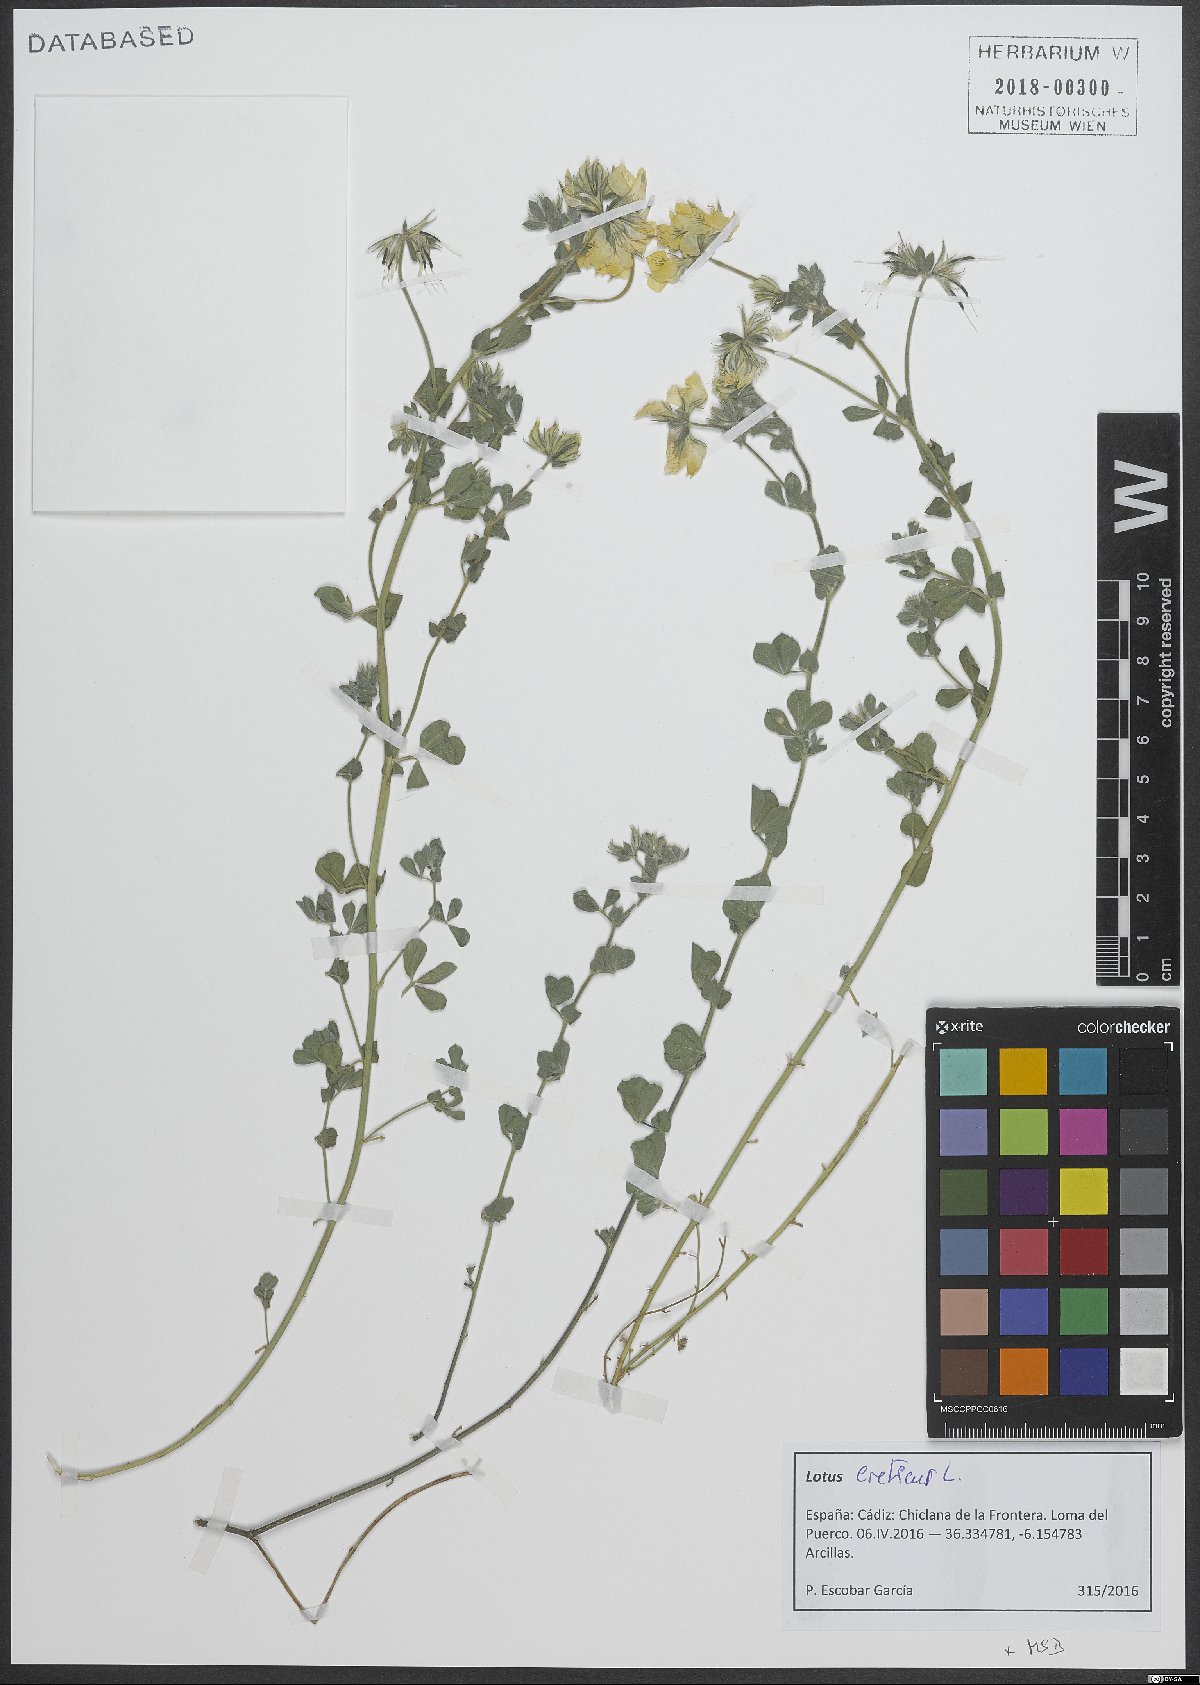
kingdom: Plantae
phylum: Tracheophyta
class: Magnoliopsida
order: Fabales
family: Fabaceae
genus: Lotus
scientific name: Lotus creticus
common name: Cretan bird's-foot trefoil
